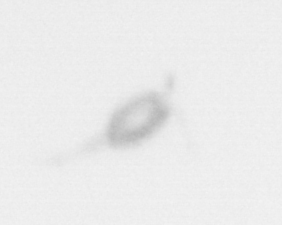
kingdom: Animalia
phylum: Arthropoda
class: Copepoda
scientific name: Copepoda
